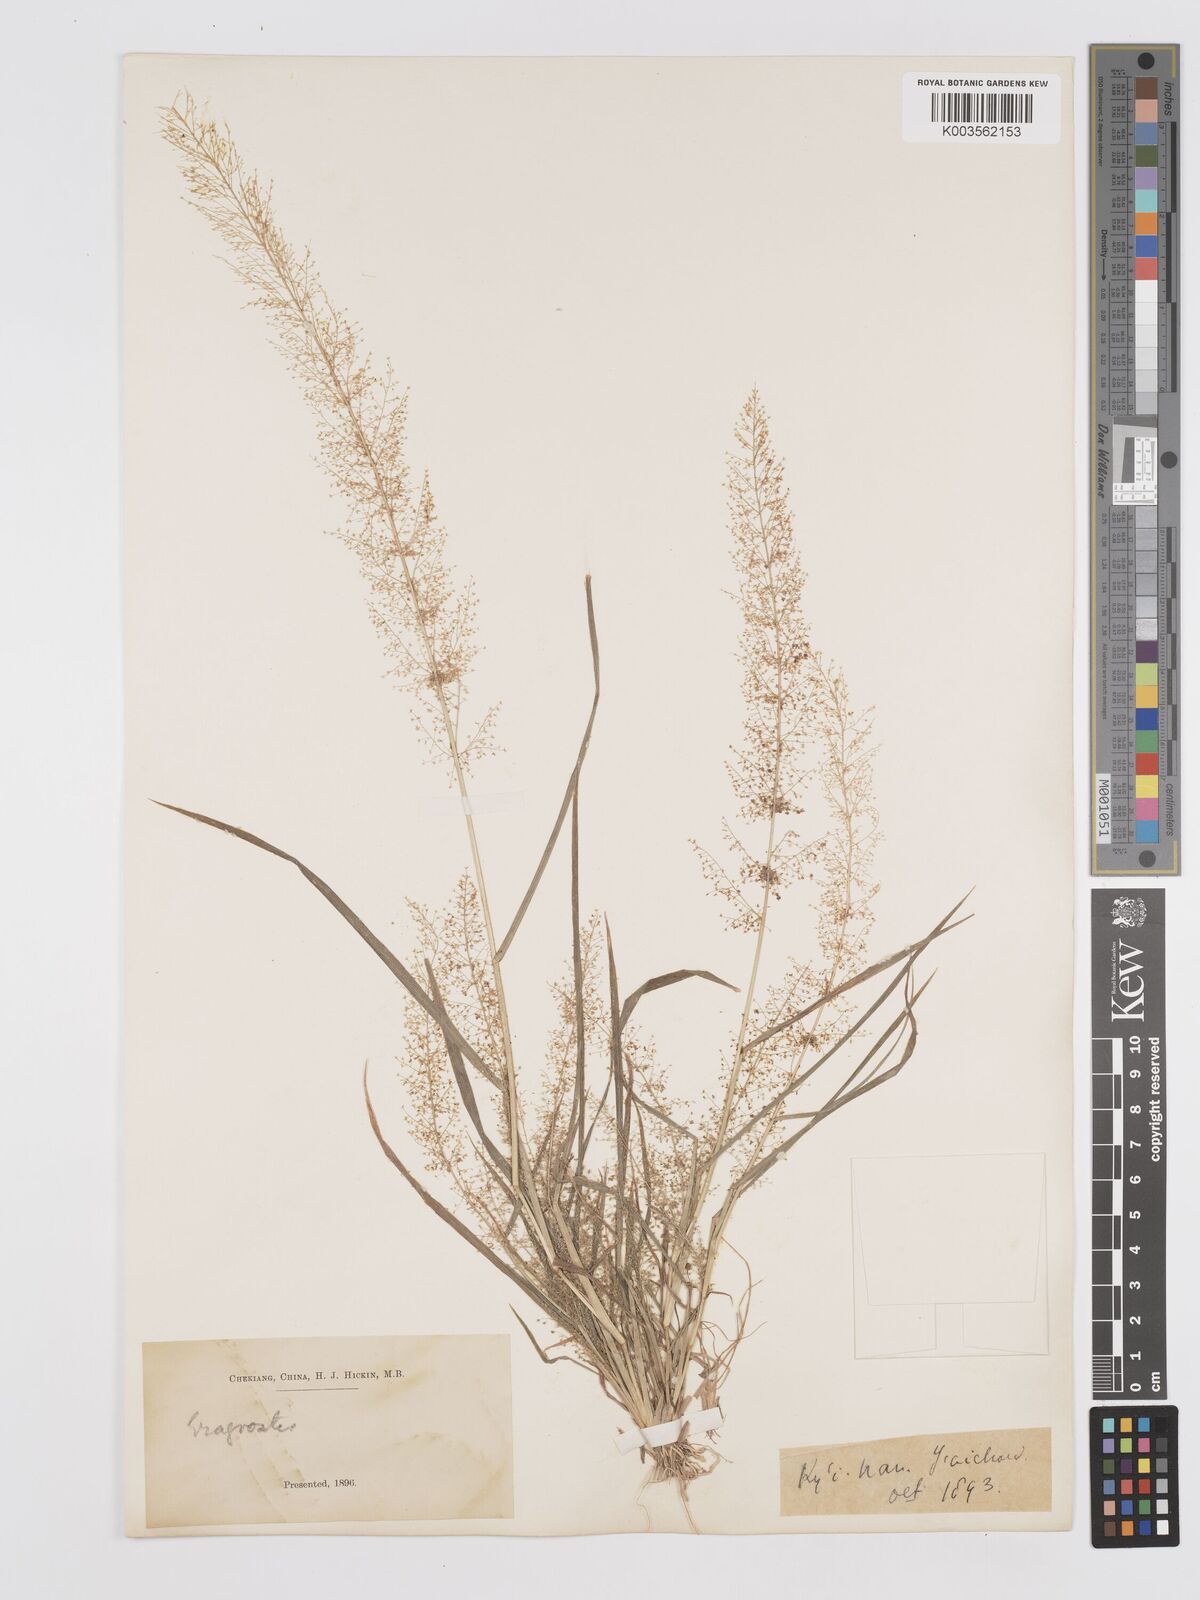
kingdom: Plantae
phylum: Tracheophyta
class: Liliopsida
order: Poales
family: Poaceae
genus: Eragrostis
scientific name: Eragrostis japonica
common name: Pond lovegrass
